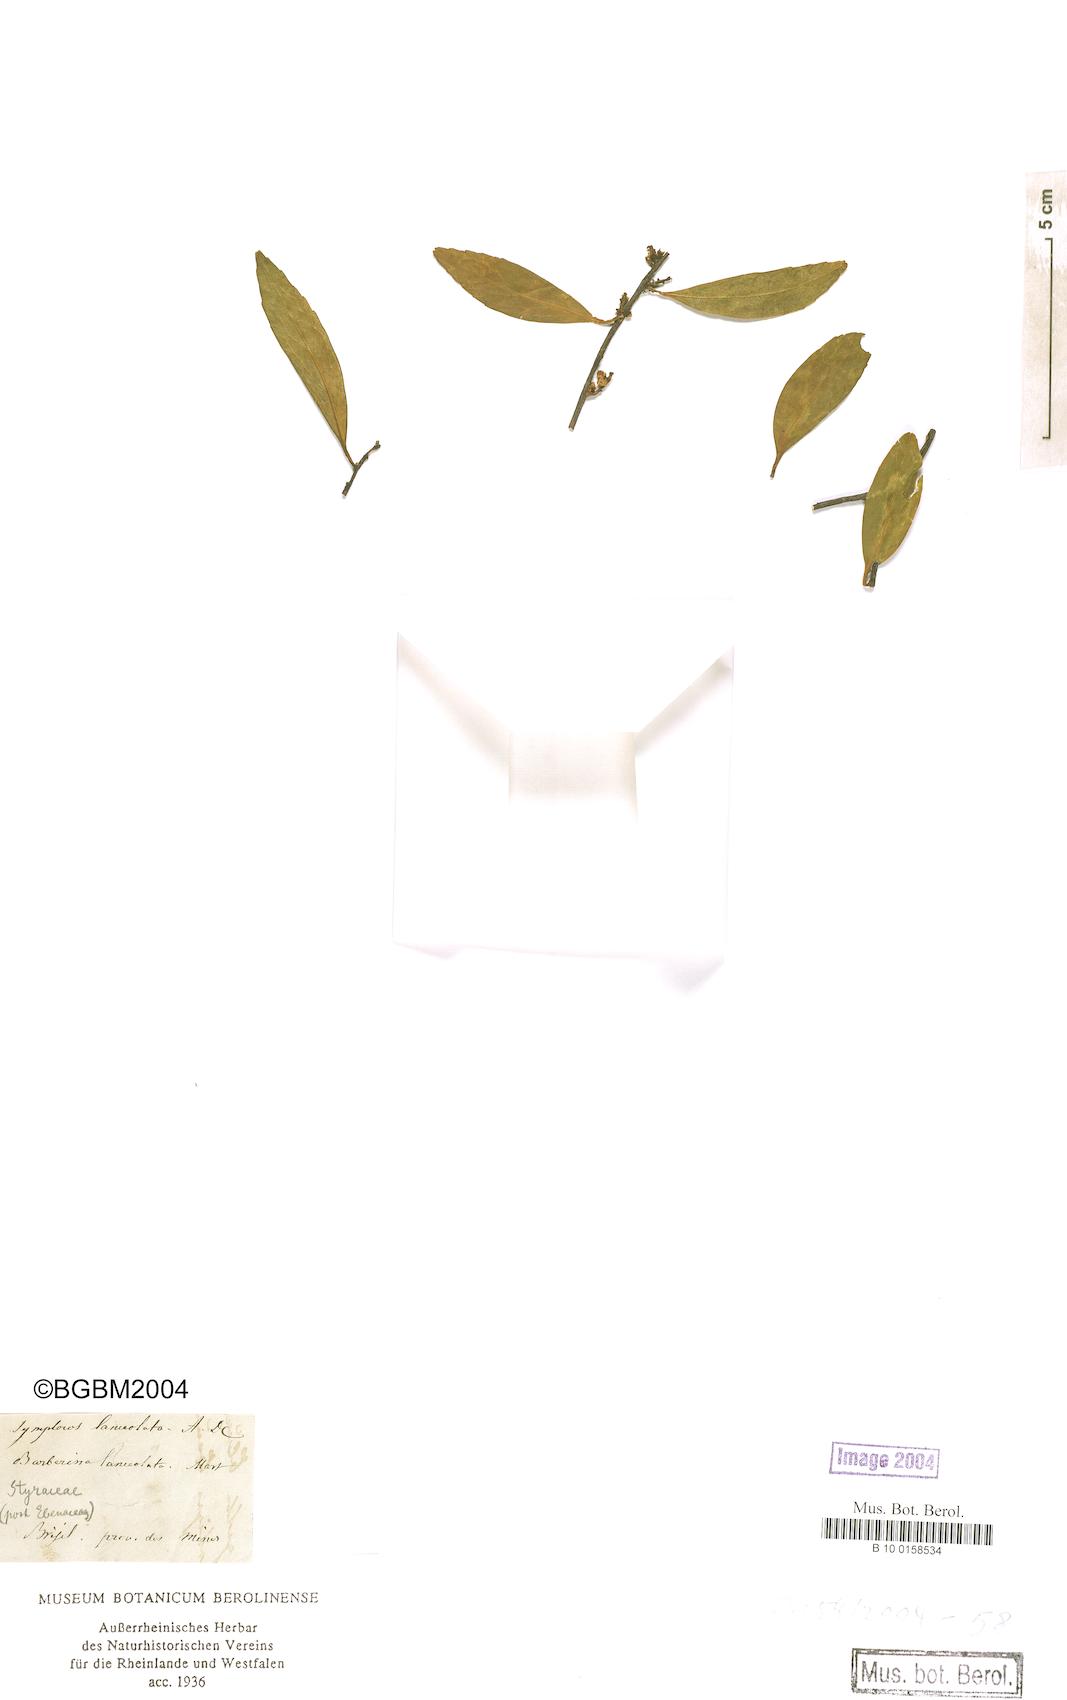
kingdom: Plantae
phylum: Tracheophyta
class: Magnoliopsida
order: Ericales
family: Symplocaceae
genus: Symplocos
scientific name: Symplocos oblongifolia
